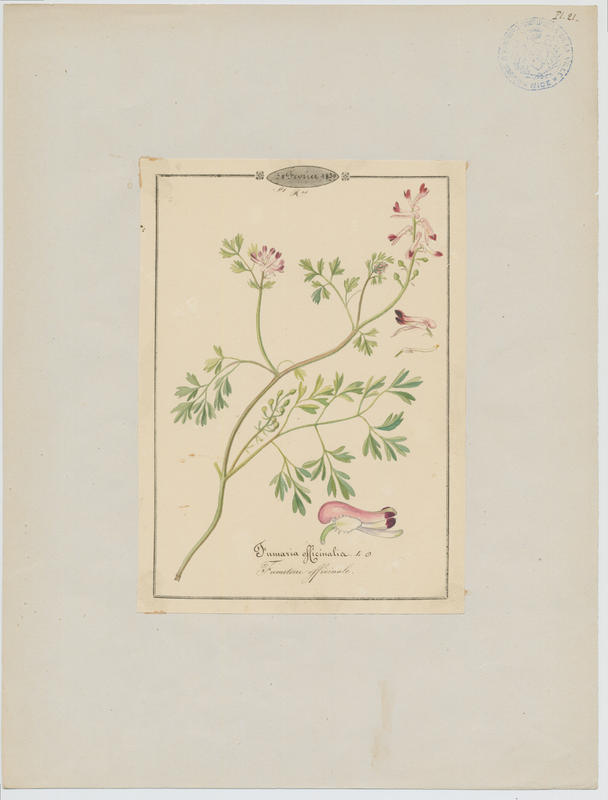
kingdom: Plantae
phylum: Tracheophyta
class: Magnoliopsida
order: Ranunculales
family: Papaveraceae
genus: Fumaria
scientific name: Fumaria officinalis
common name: Common fumitory
